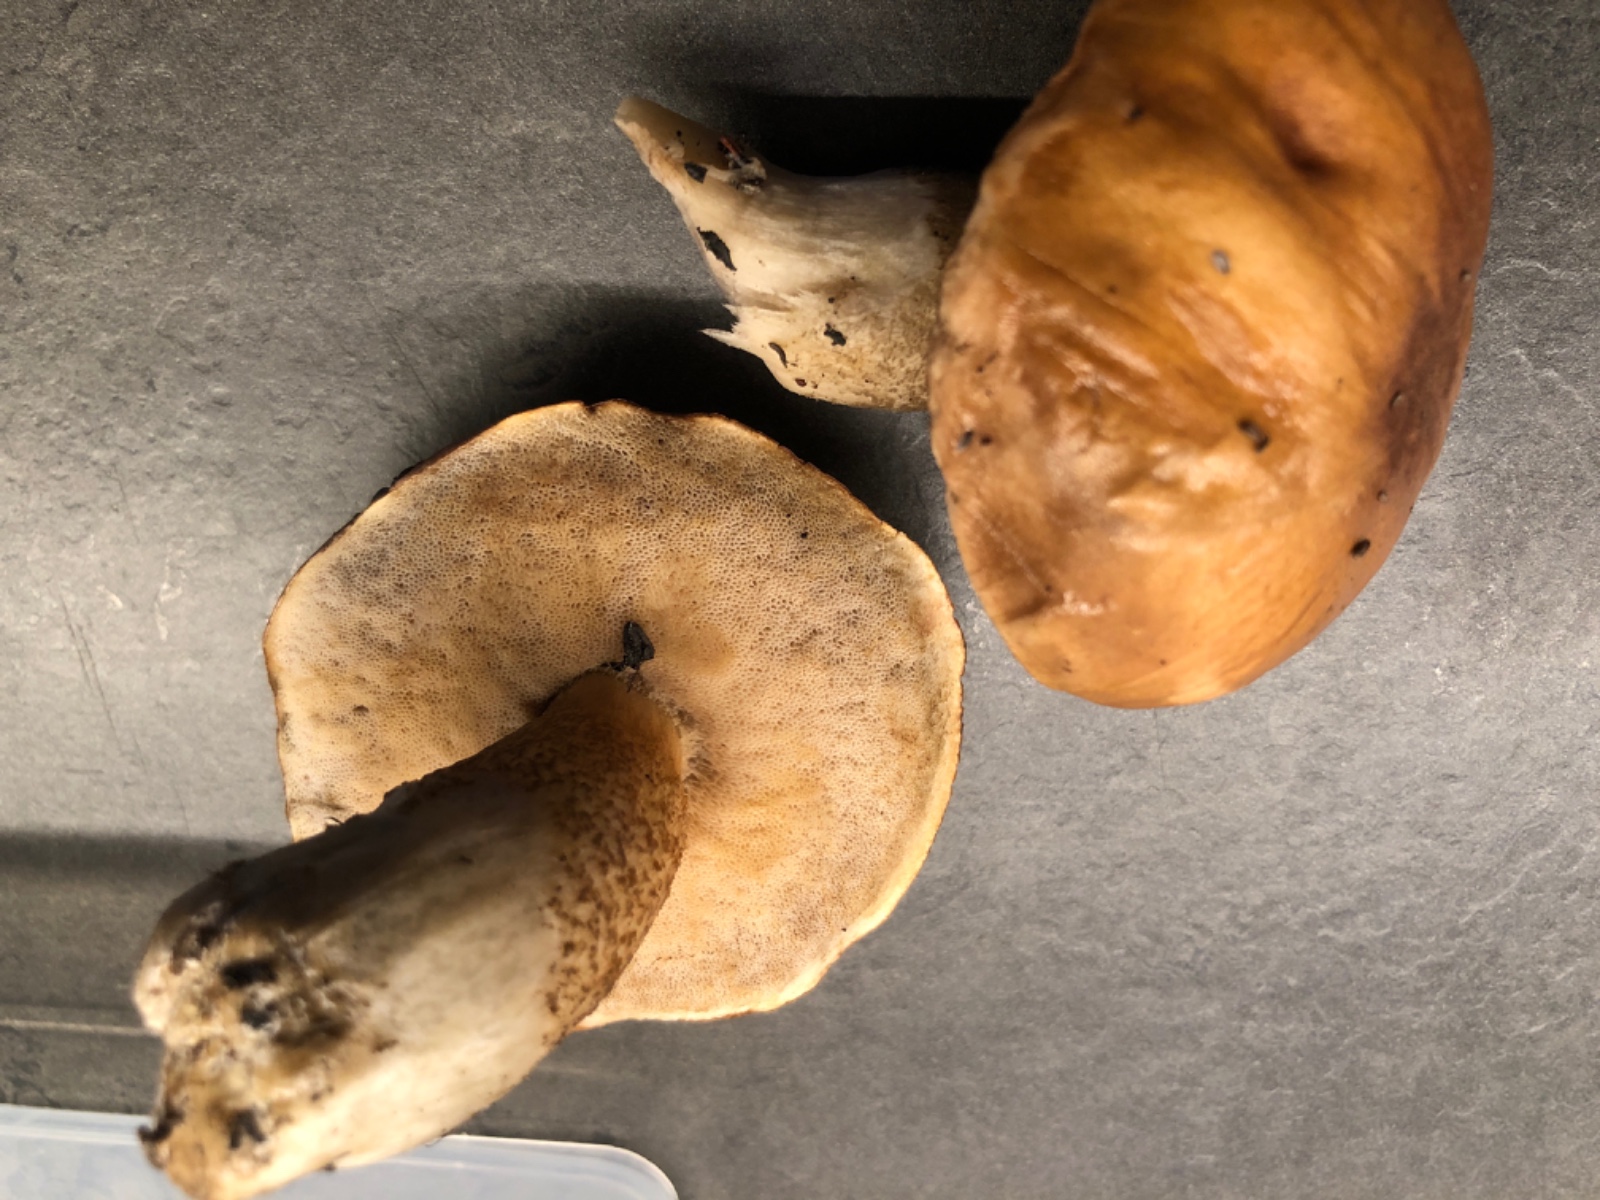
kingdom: Fungi
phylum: Basidiomycota
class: Agaricomycetes
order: Boletales
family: Boletaceae
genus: Leccinum
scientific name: Leccinum scabrum
